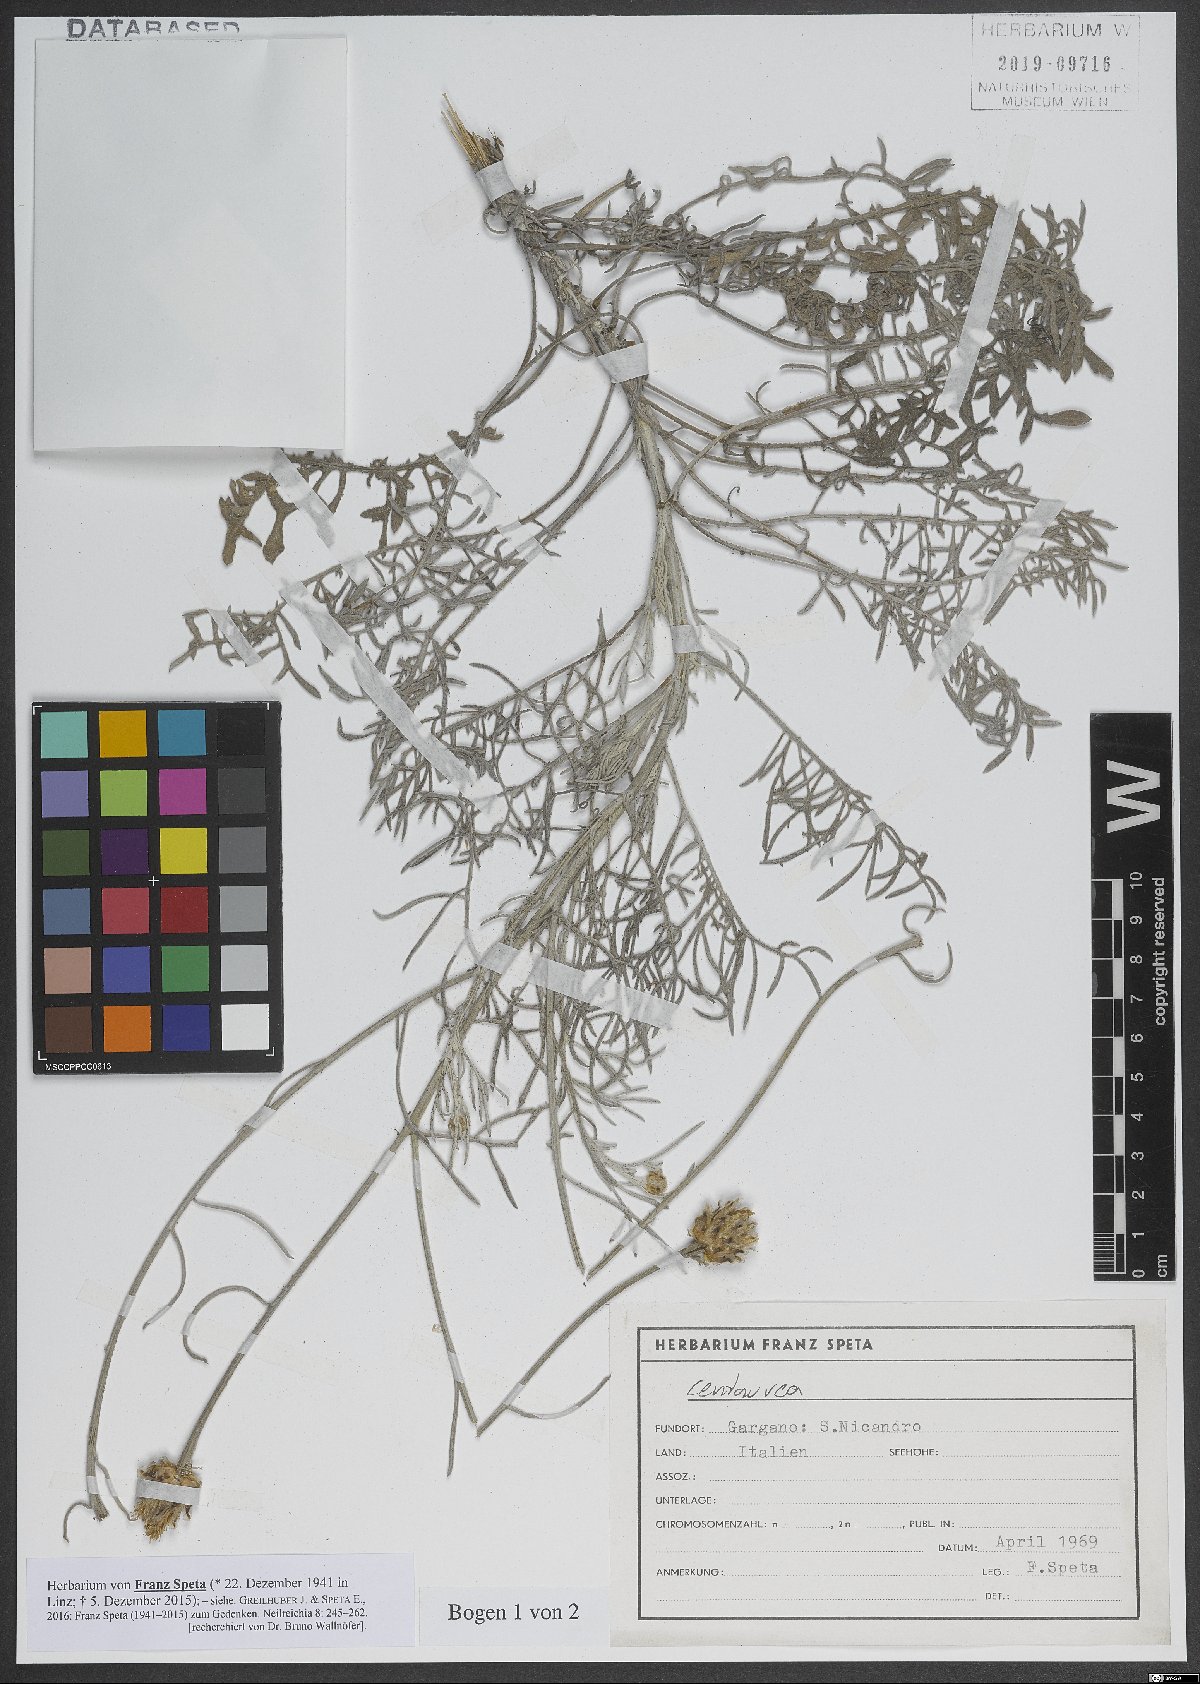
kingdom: Plantae
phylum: Tracheophyta
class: Magnoliopsida
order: Asterales
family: Asteraceae
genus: Centaurea
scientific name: Centaurea
